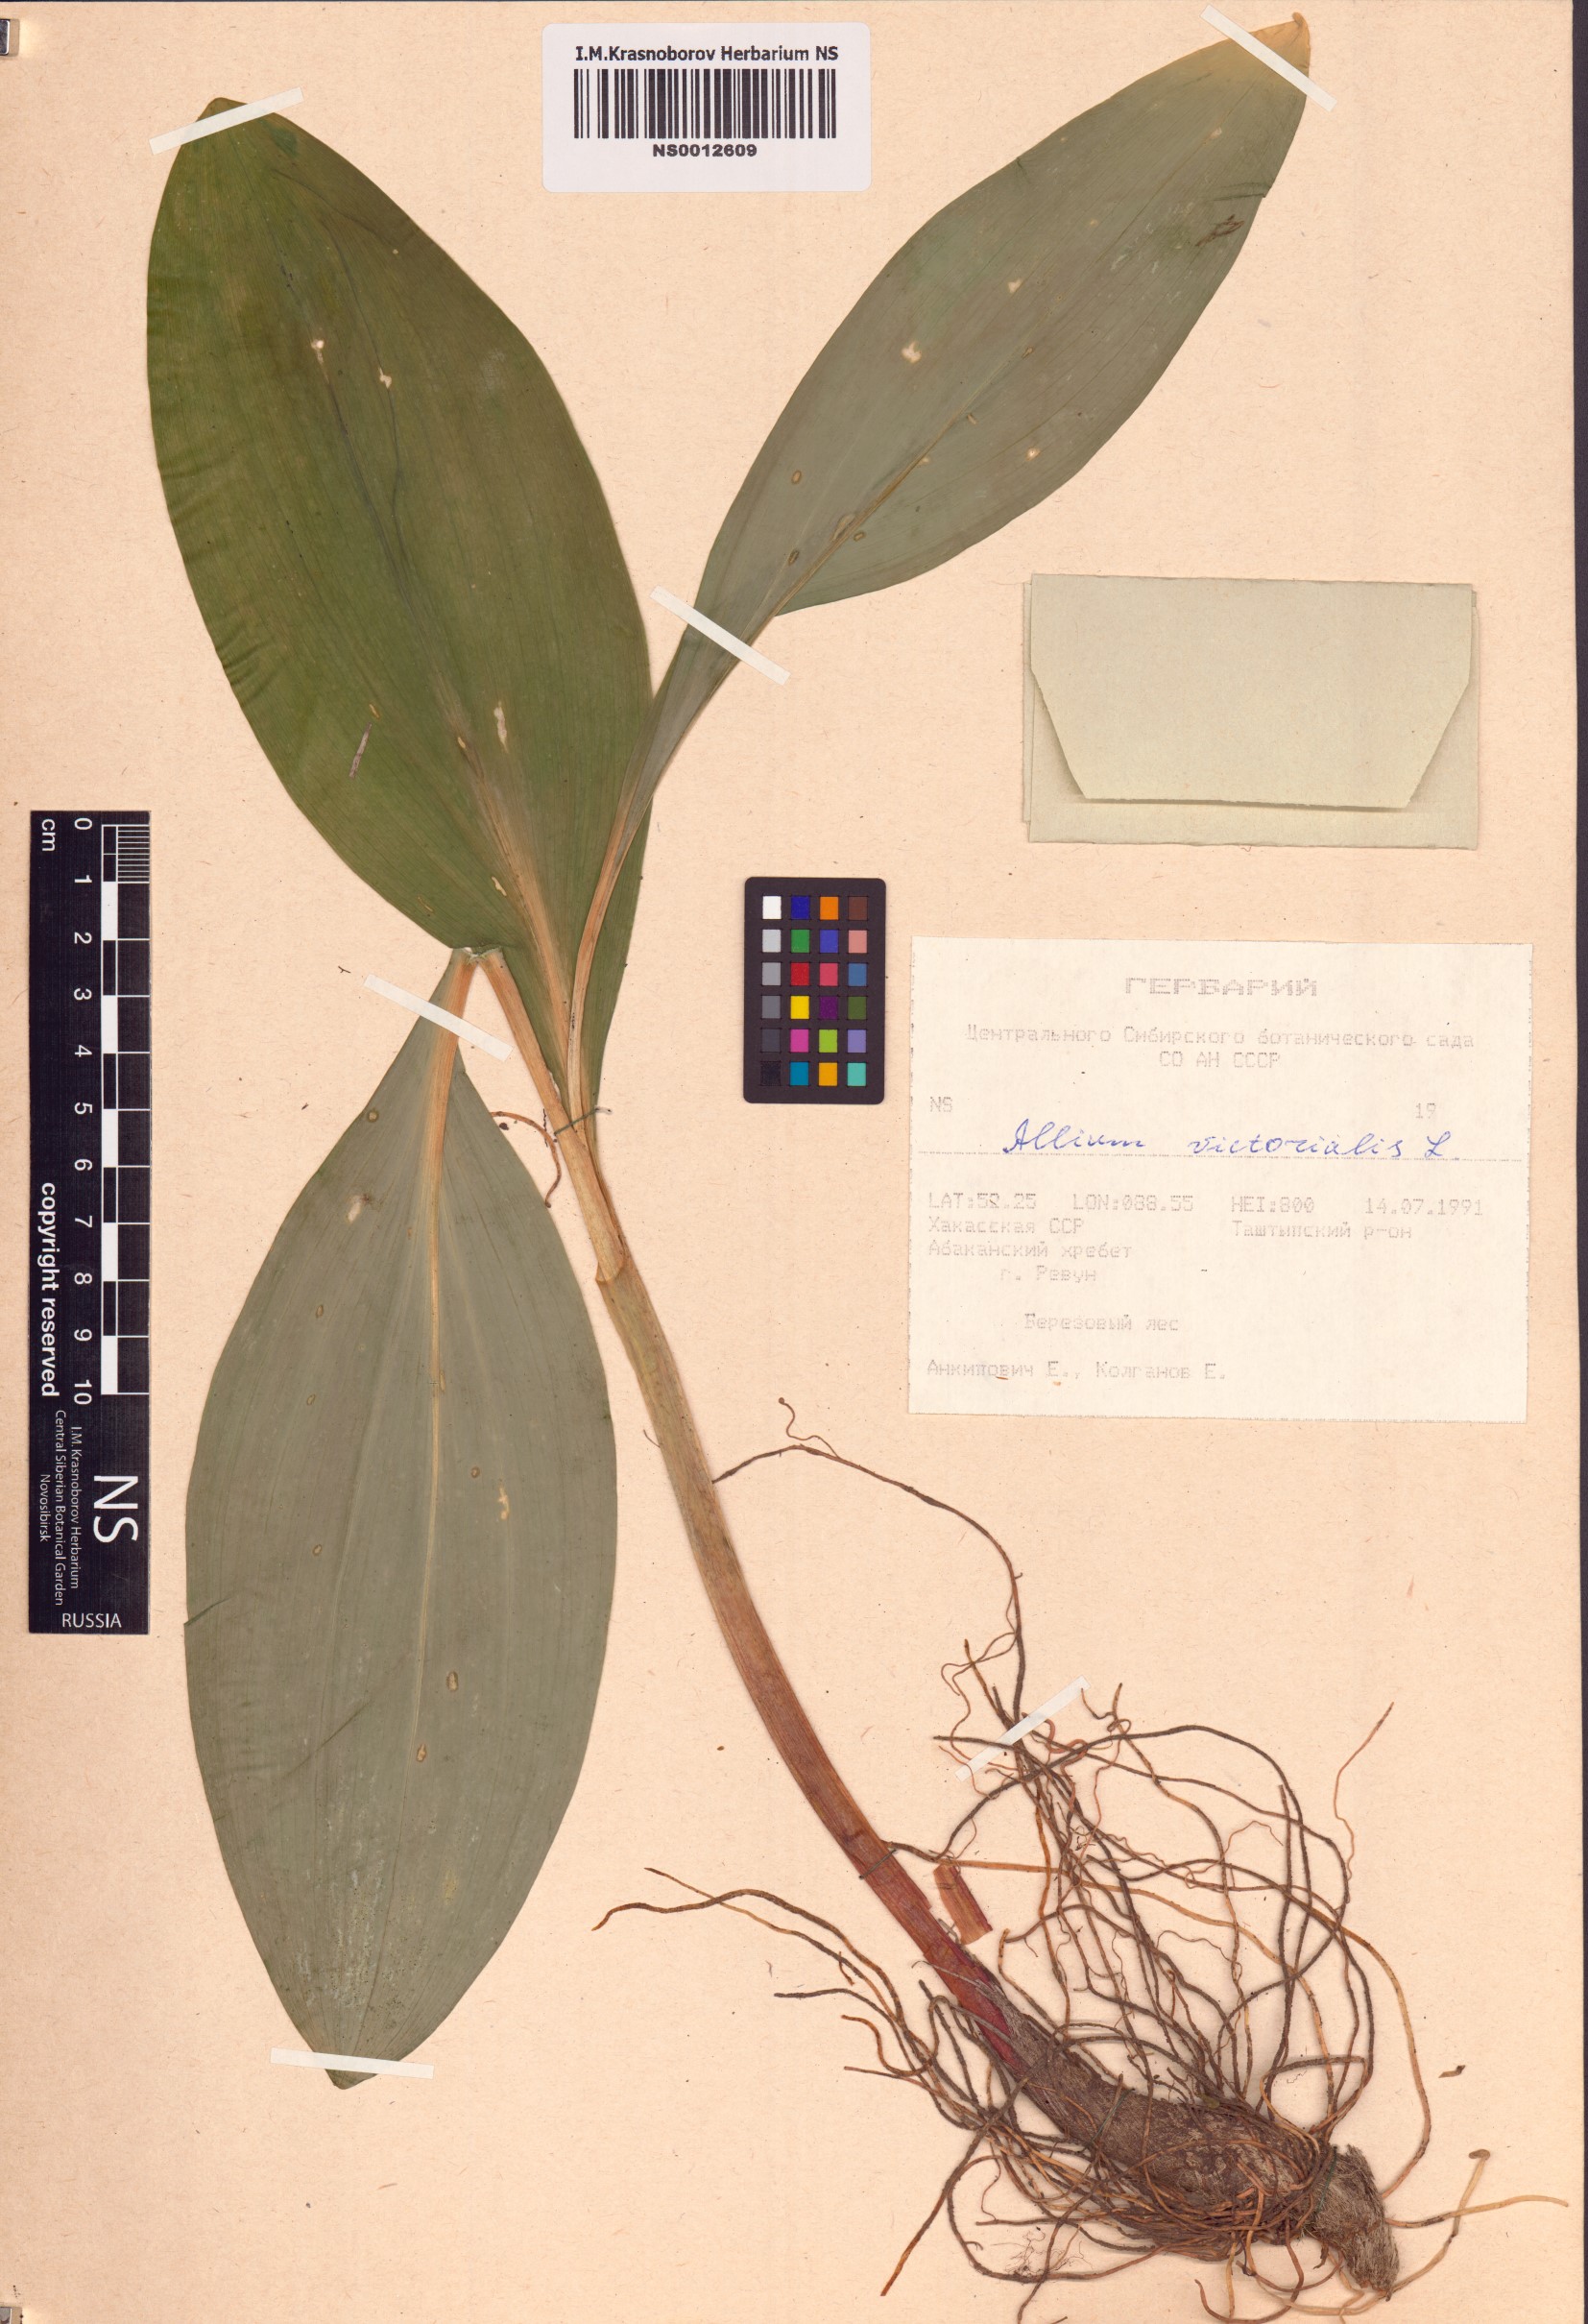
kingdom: Plantae
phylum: Tracheophyta
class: Liliopsida
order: Asparagales
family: Amaryllidaceae
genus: Allium
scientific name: Allium microdictyon
